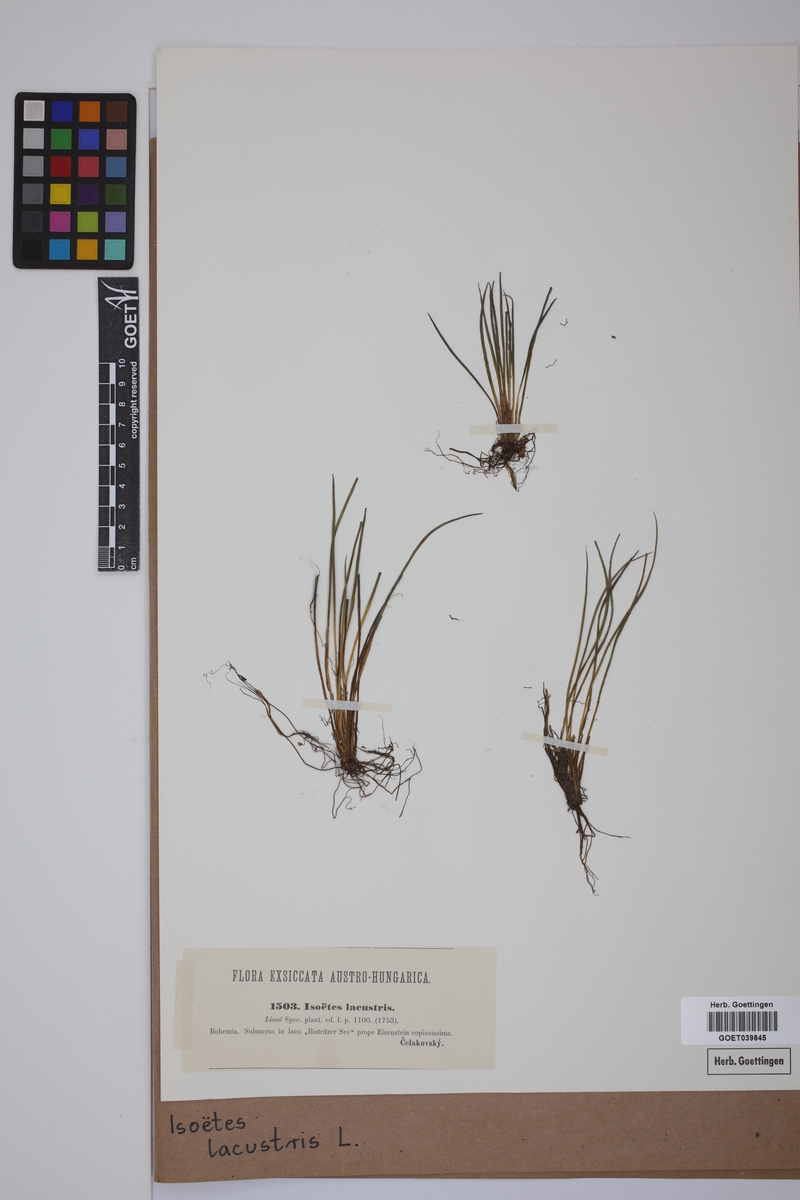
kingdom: Plantae
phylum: Tracheophyta
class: Lycopodiopsida
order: Isoetales
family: Isoetaceae
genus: Isoetes
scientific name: Isoetes lacustris
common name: Common quillwort
